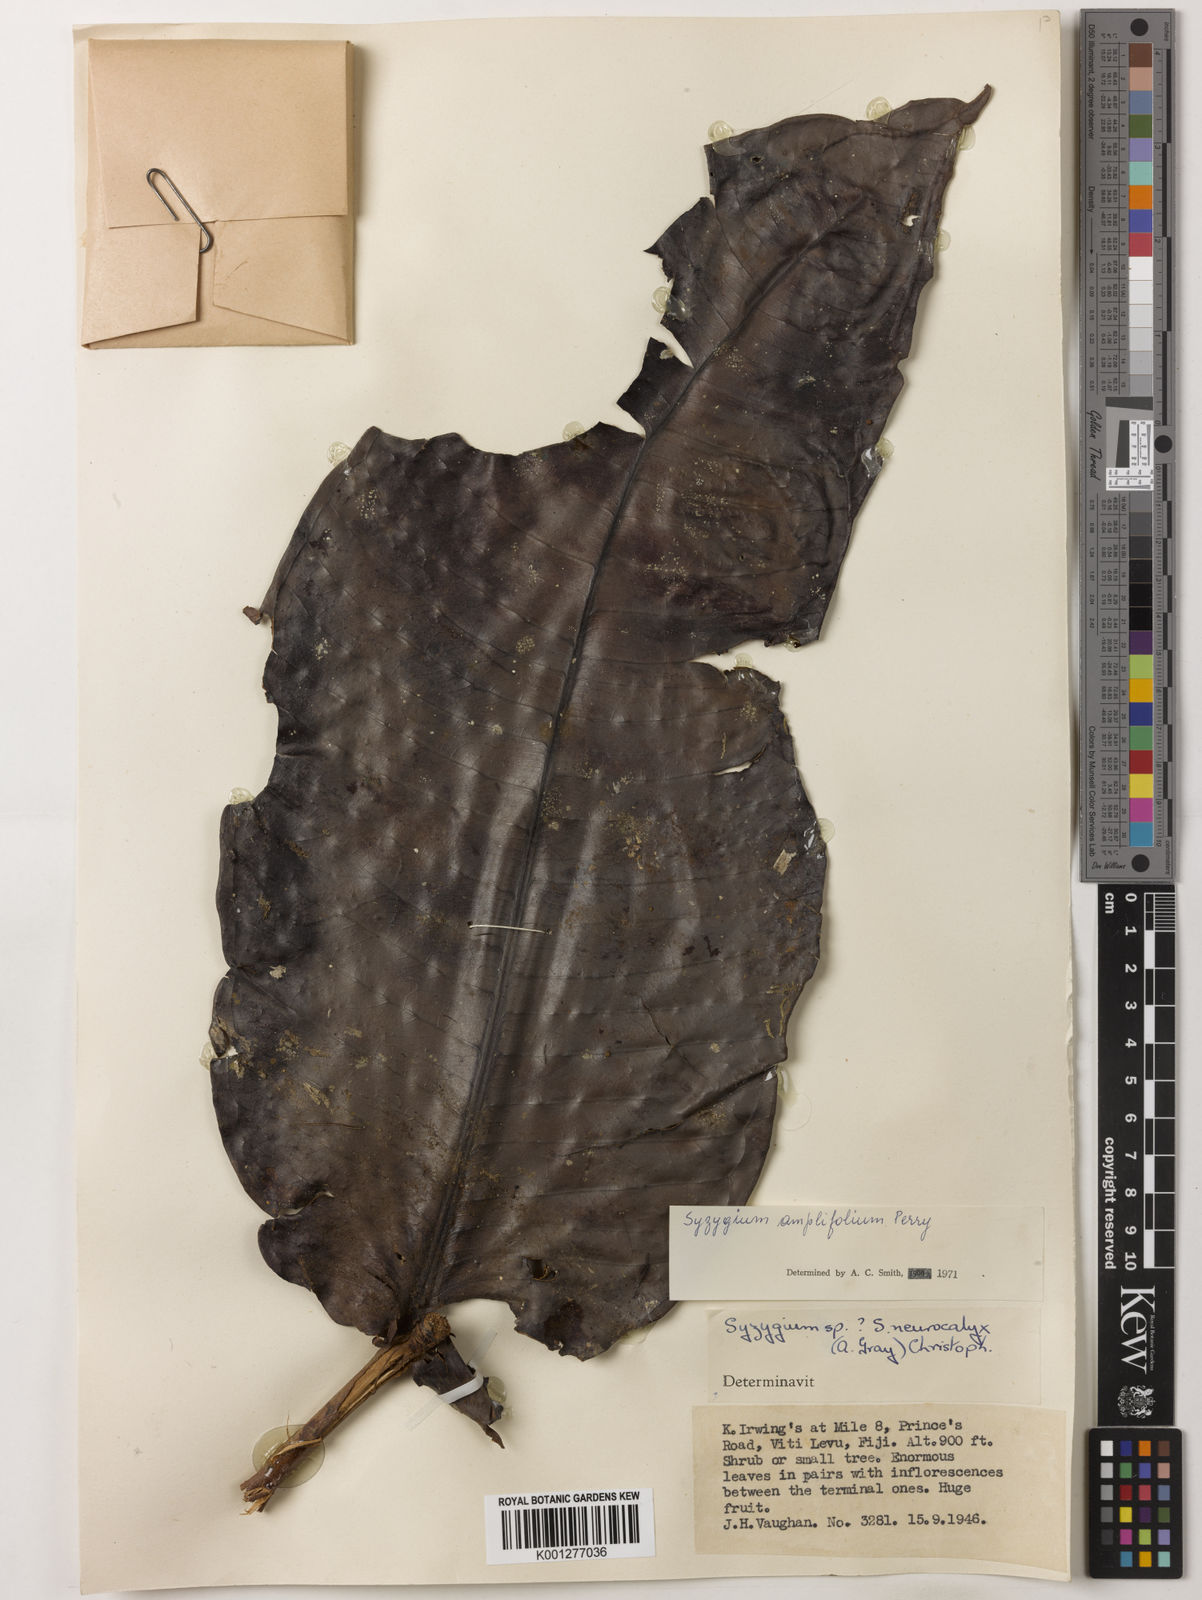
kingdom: Plantae
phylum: Tracheophyta
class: Magnoliopsida
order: Myrtales
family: Myrtaceae
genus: Syzygium
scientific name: Syzygium amplifolium
